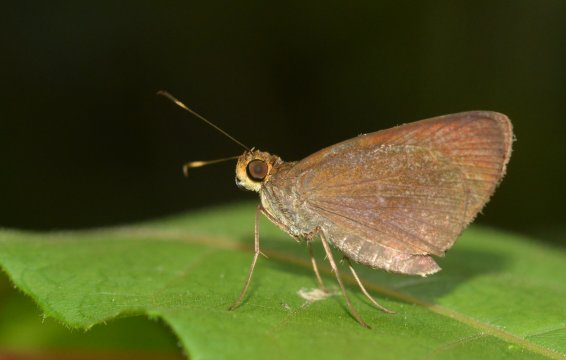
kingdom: Animalia
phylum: Arthropoda
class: Insecta
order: Lepidoptera
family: Hesperiidae
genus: Synapte
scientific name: Synapte silius
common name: Rain-forest Faceted-Skipper
